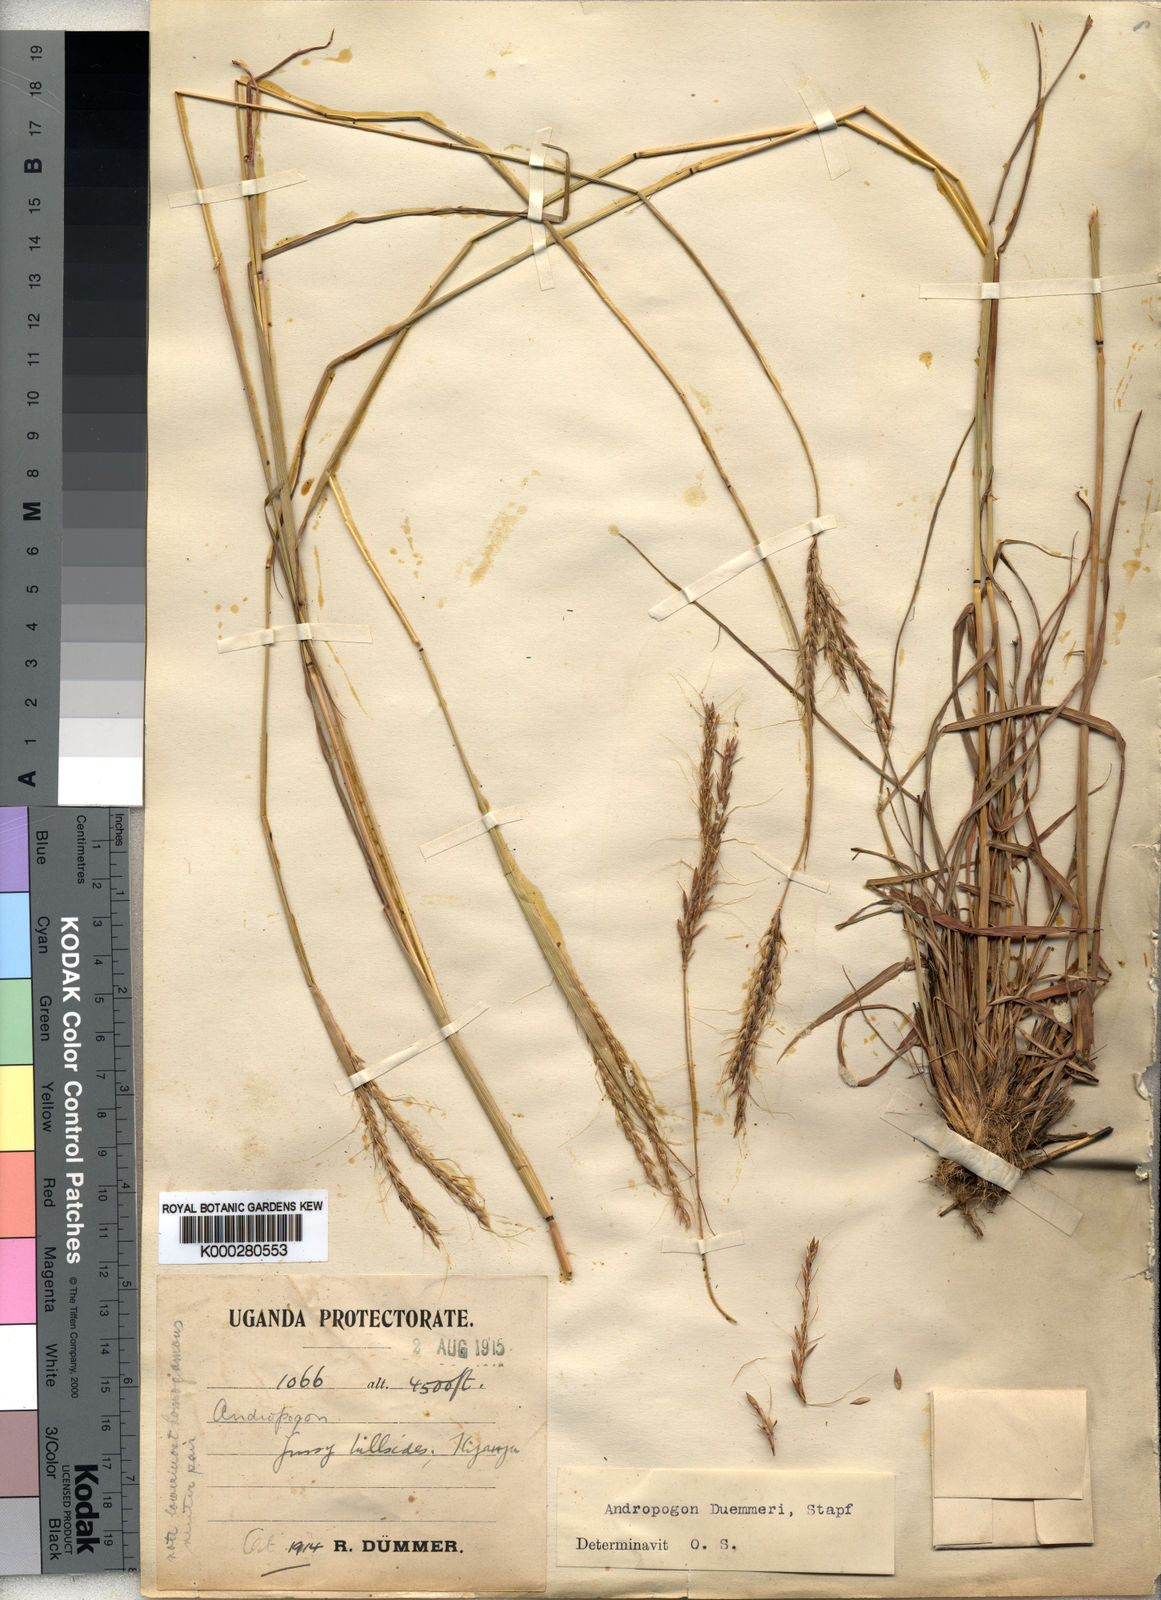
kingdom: Plantae
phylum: Tracheophyta
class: Liliopsida
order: Poales
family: Poaceae
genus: Andropogon
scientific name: Andropogon
